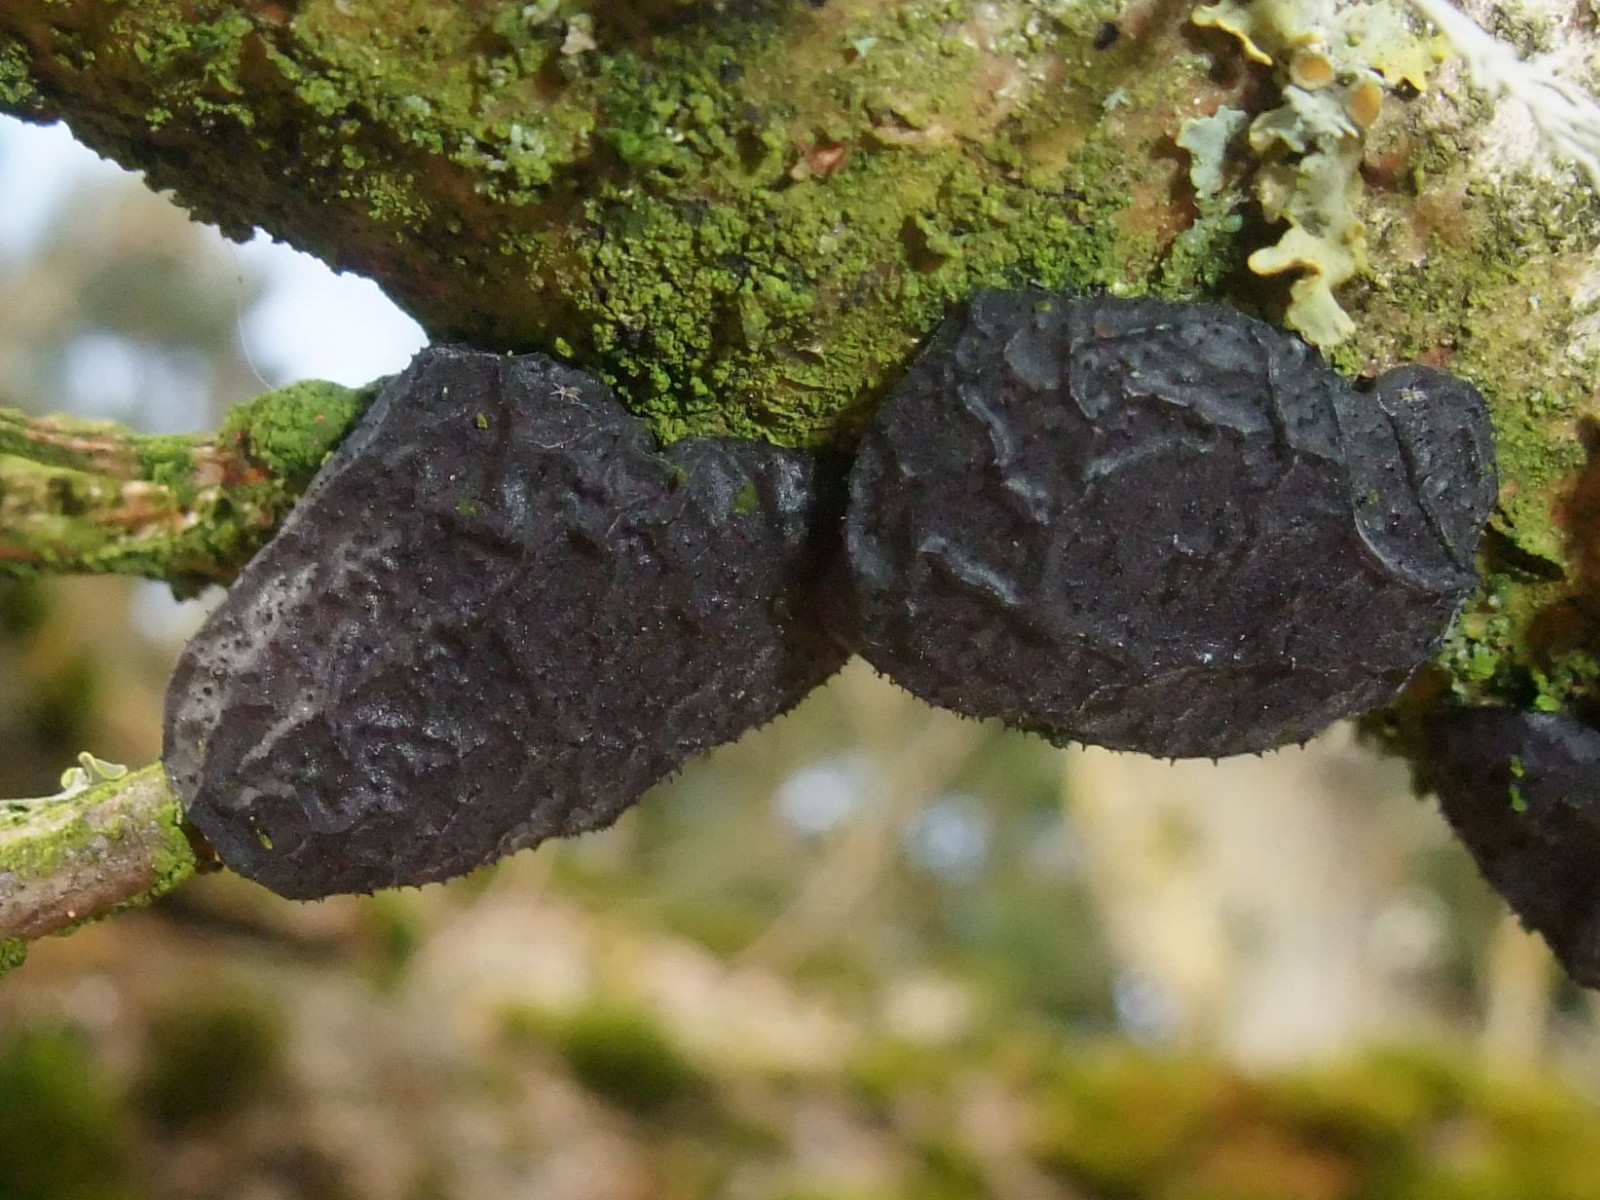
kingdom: Fungi
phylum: Basidiomycota
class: Agaricomycetes
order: Auriculariales
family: Auriculariaceae
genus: Exidia
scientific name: Exidia glandulosa
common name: ege-bævretop
